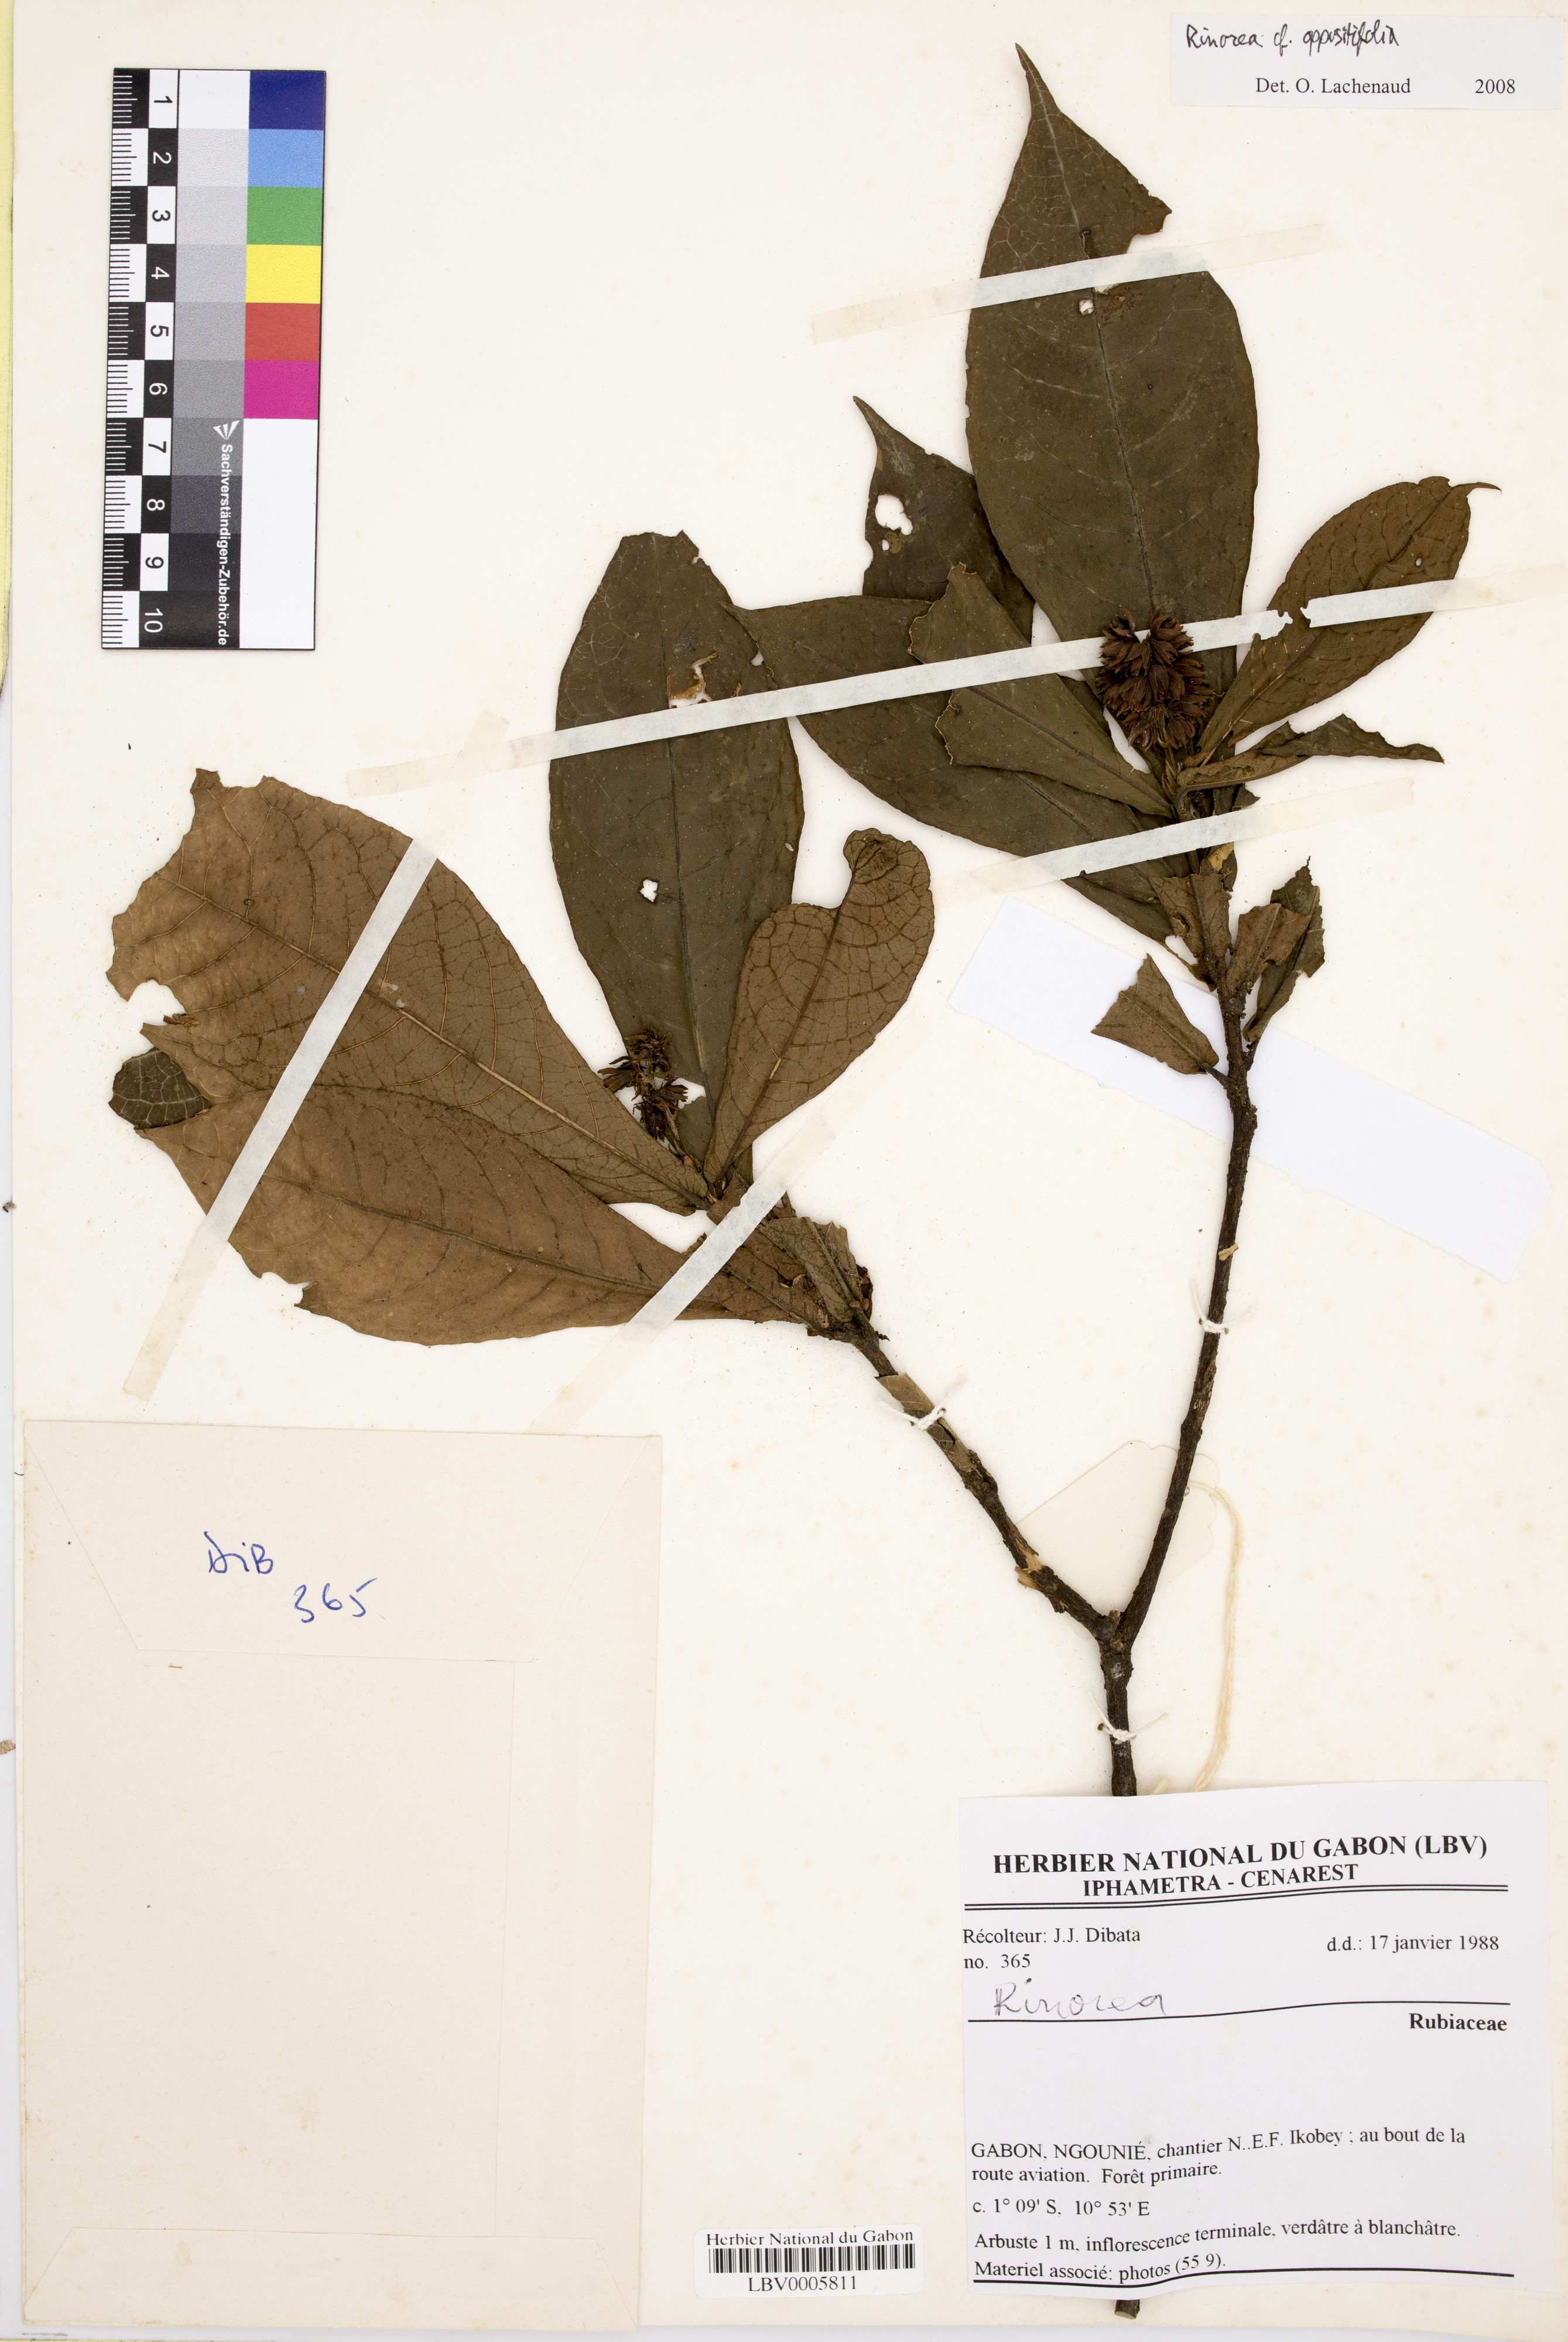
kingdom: Plantae
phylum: Tracheophyta
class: Magnoliopsida
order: Gentianales
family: Rubiaceae
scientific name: Rubiaceae
